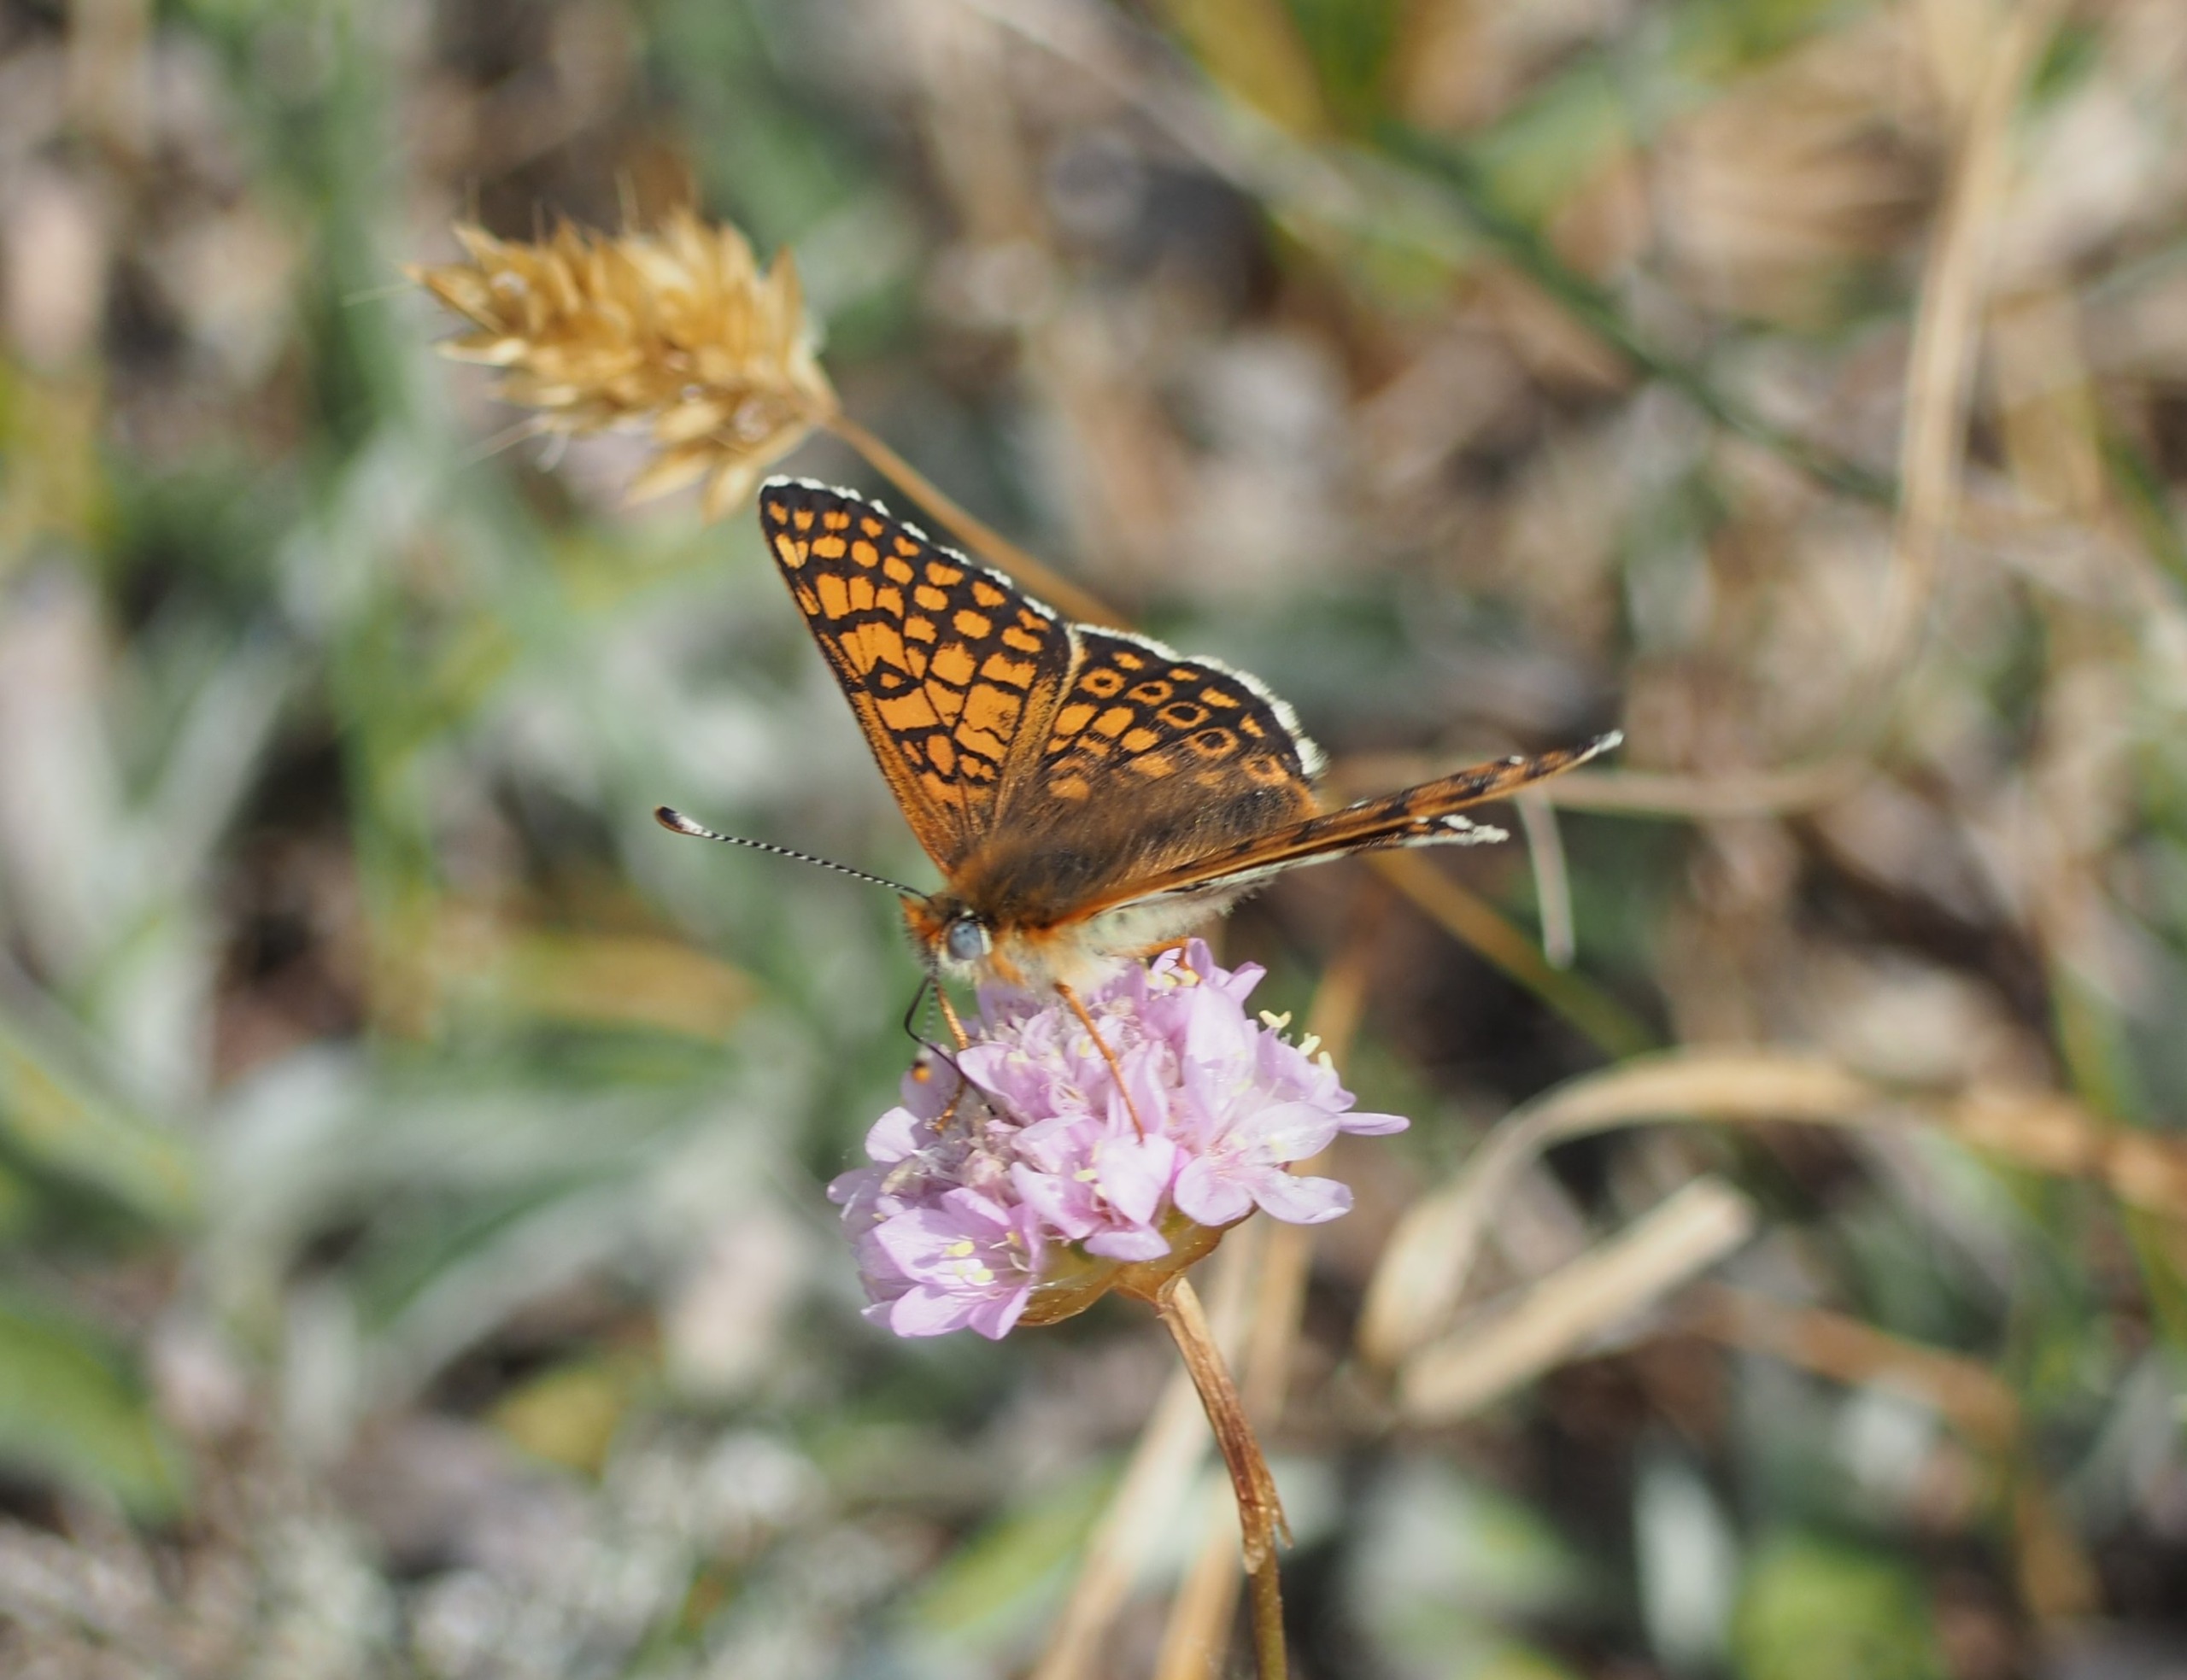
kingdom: Animalia
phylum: Arthropoda
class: Insecta
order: Lepidoptera
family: Nymphalidae
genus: Melitaea
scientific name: Melitaea cinxia
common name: Okkergul pletvinge
